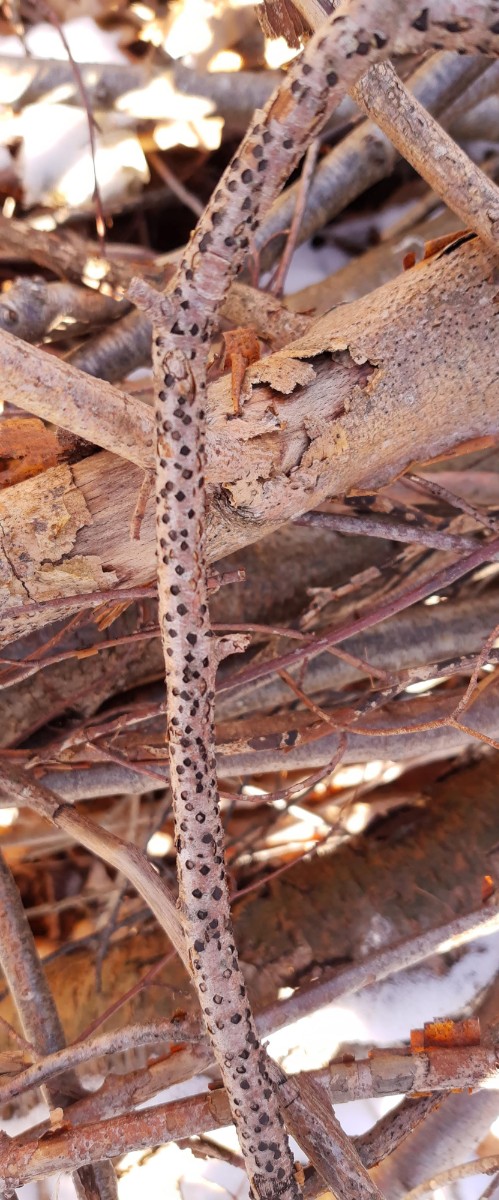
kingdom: Fungi
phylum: Ascomycota
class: Sordariomycetes
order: Xylariales
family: Diatrypaceae
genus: Diatrype
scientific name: Diatrype disciformis
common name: kant-kulskorpe
